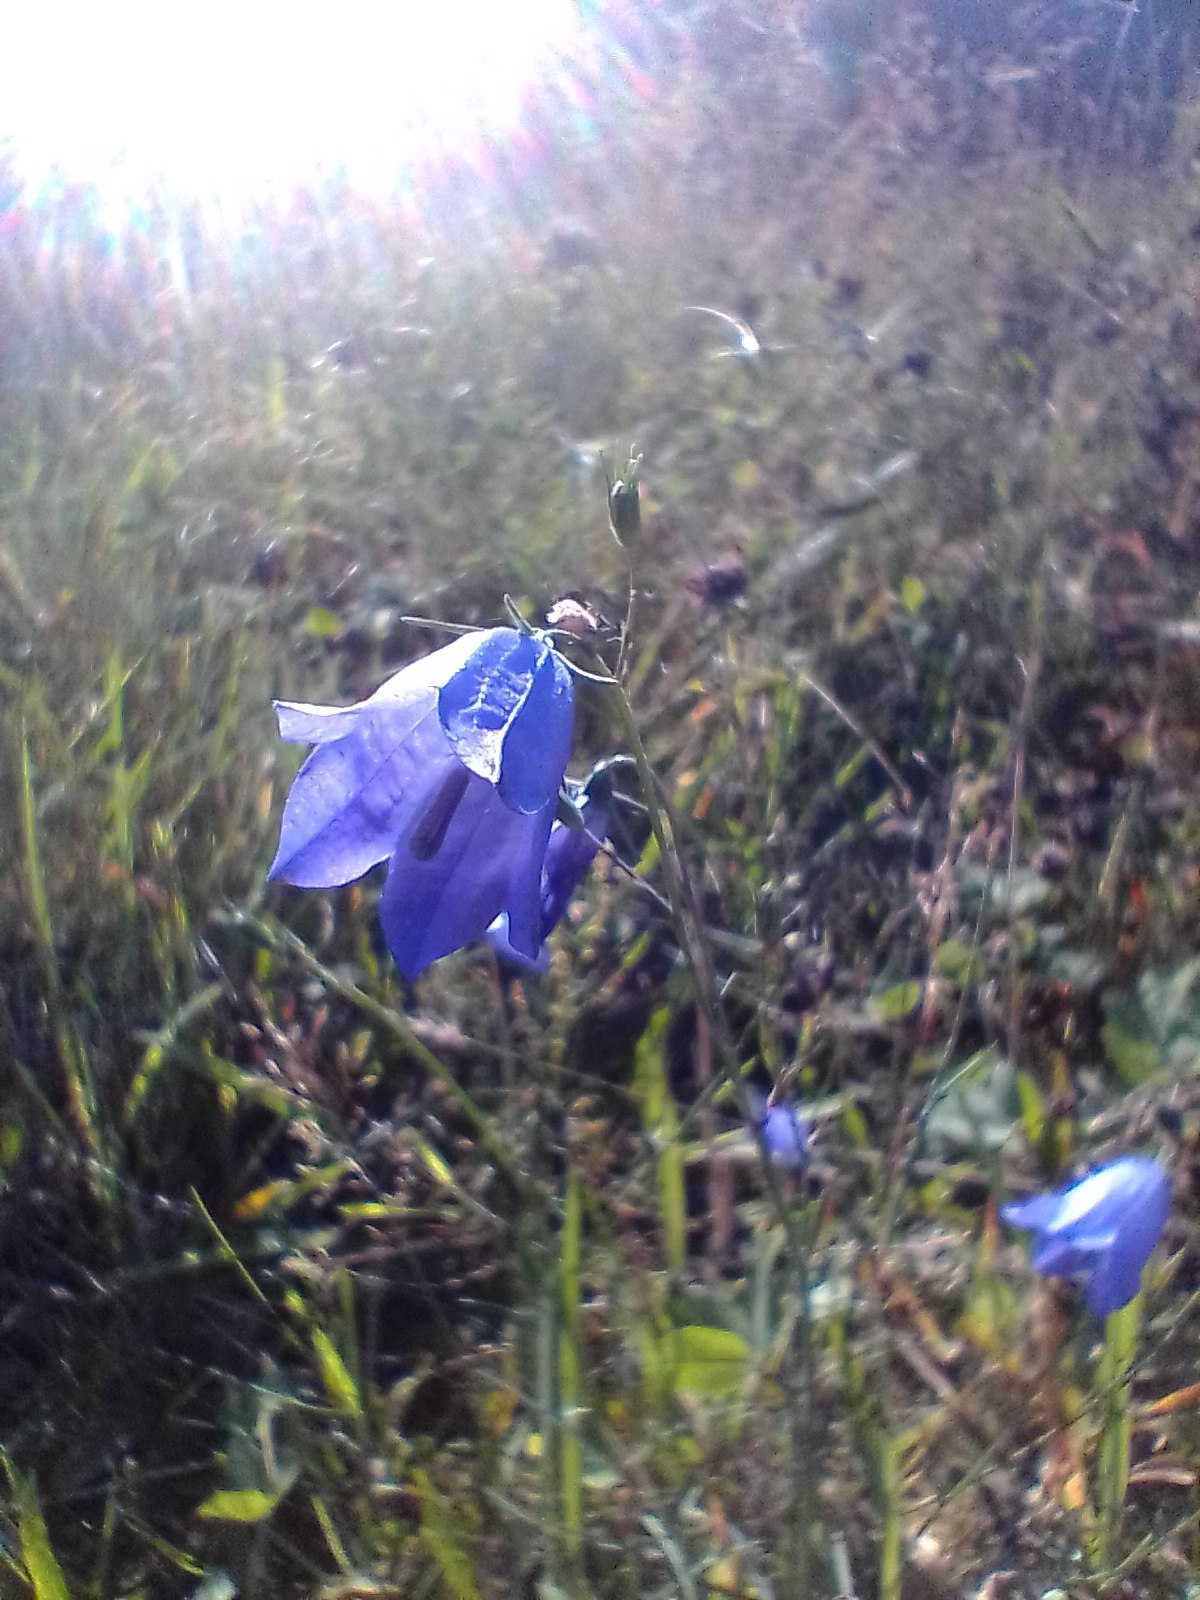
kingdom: Plantae
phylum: Tracheophyta
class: Magnoliopsida
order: Asterales
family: Campanulaceae
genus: Campanula
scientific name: Campanula rotundifolia
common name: Liden klokke
